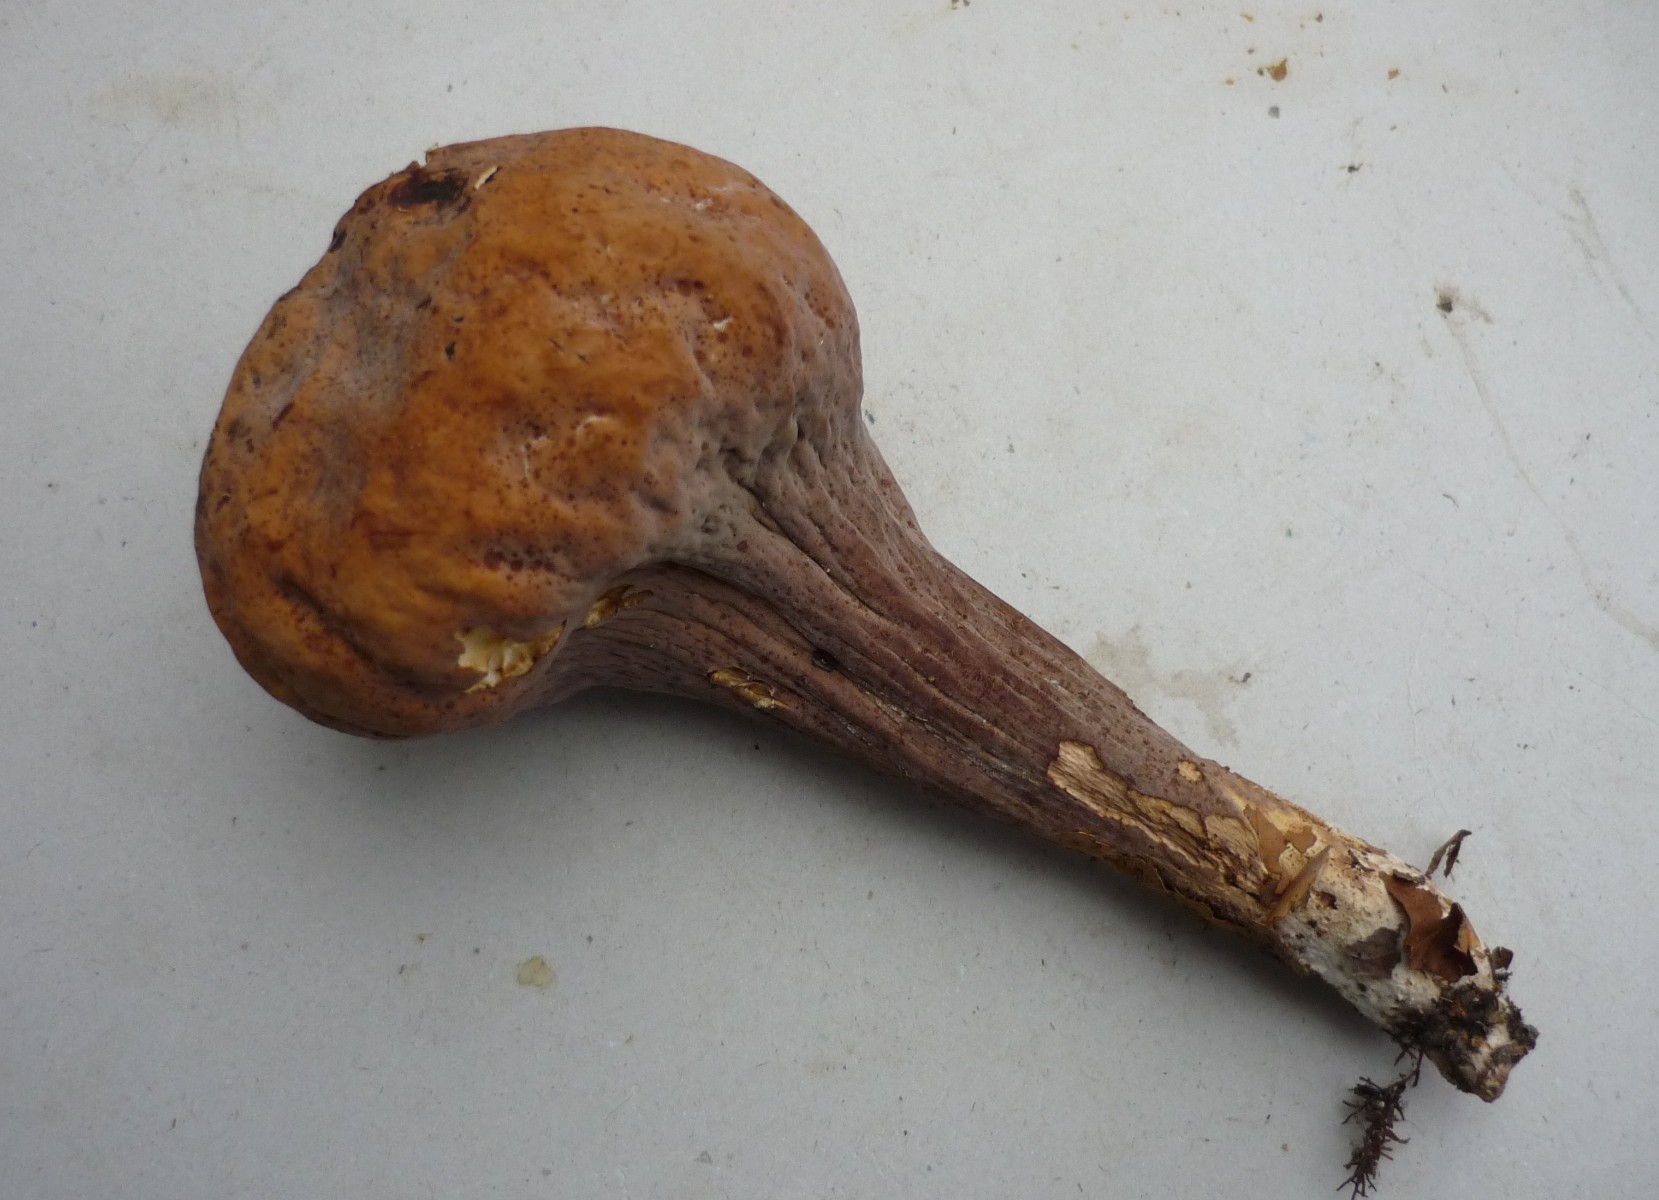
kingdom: Fungi
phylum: Basidiomycota
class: Agaricomycetes
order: Gomphales
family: Clavariadelphaceae
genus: Clavariadelphus
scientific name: Clavariadelphus pistillaris
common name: herkules-kæmpekølle
